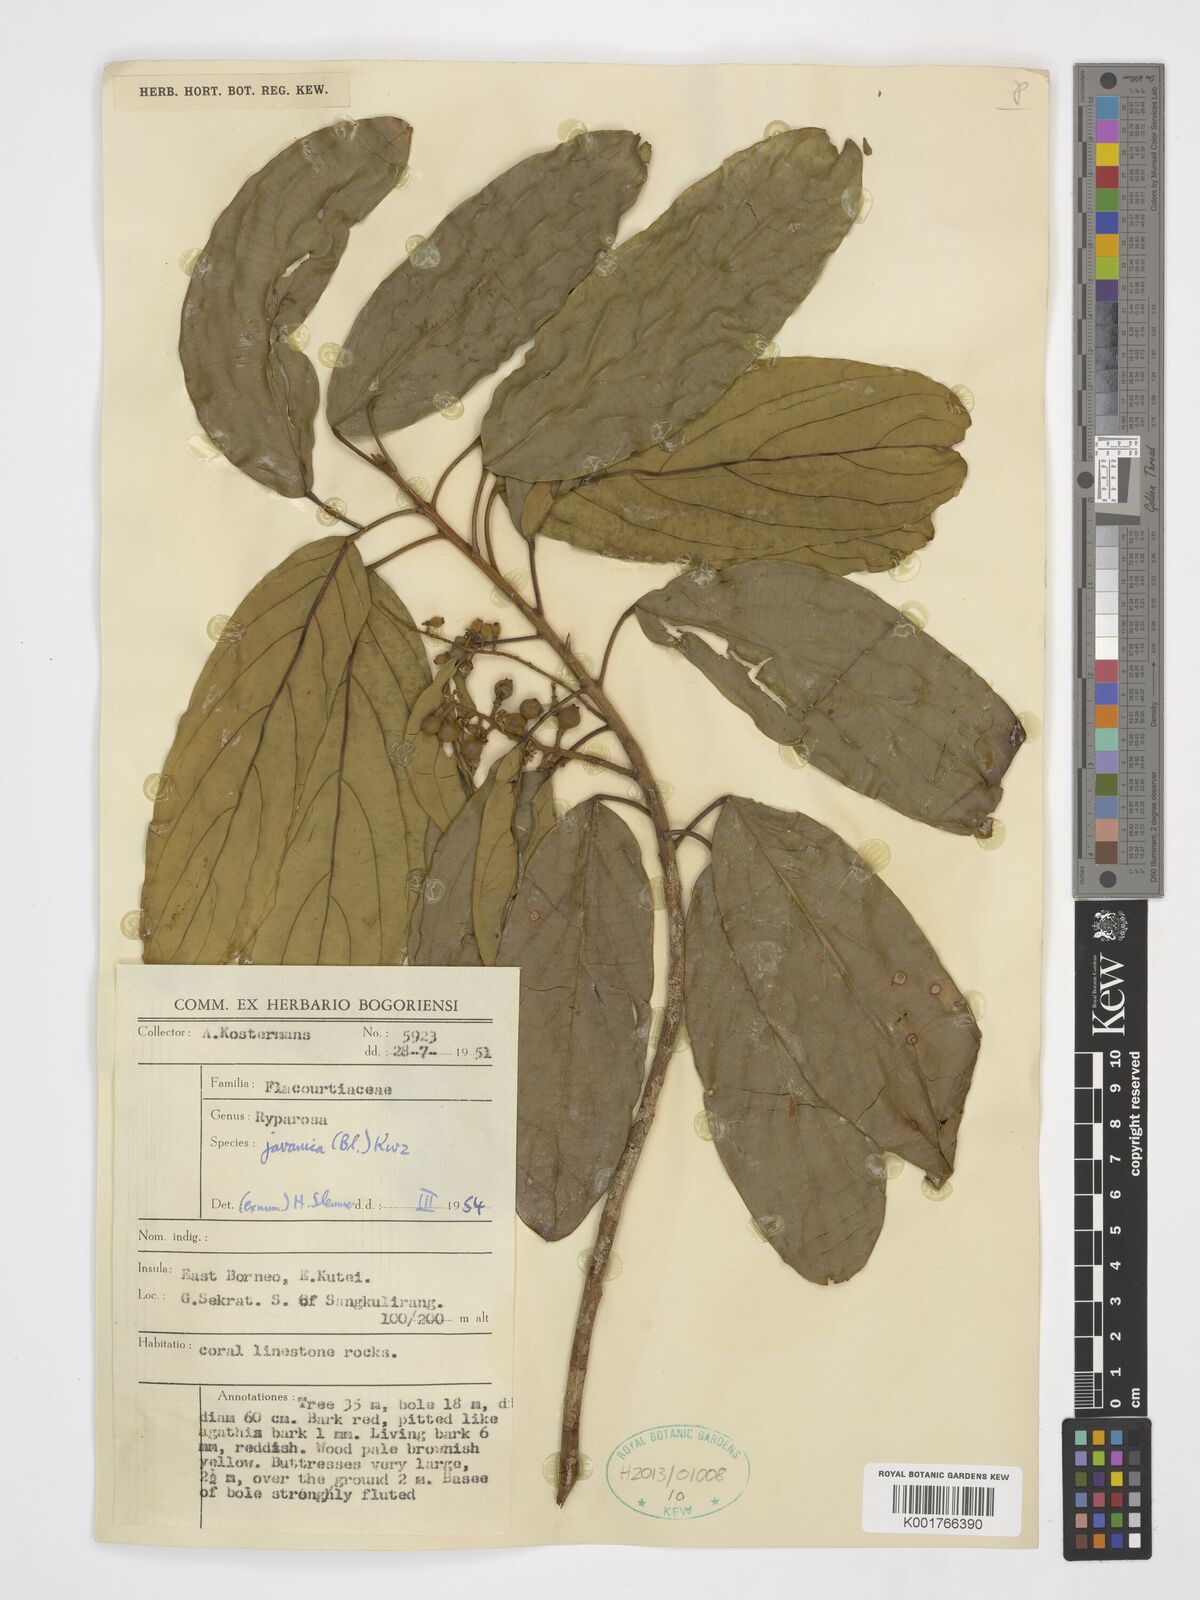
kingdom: Plantae
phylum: Tracheophyta
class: Magnoliopsida
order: Malpighiales
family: Achariaceae
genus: Ryparosa
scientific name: Ryparosa javanica
